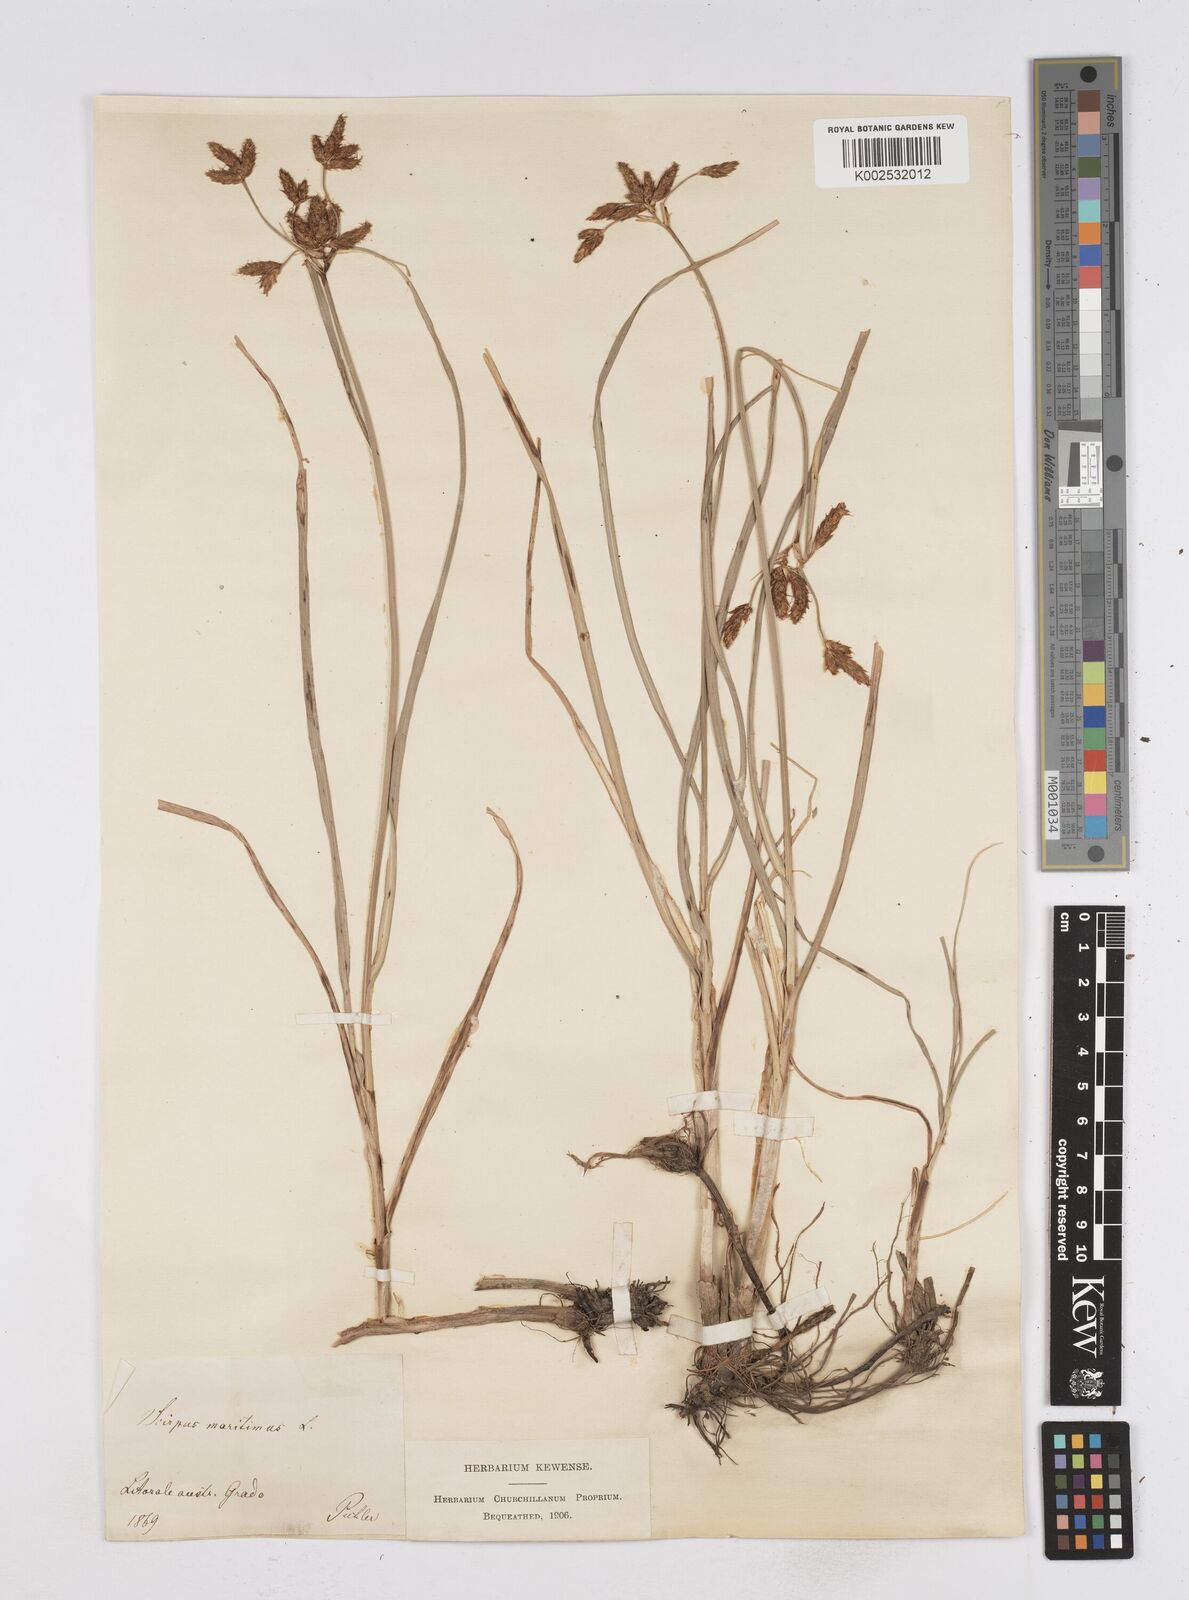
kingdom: Plantae
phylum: Tracheophyta
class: Liliopsida
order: Poales
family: Cyperaceae
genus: Bolboschoenus
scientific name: Bolboschoenus maritimus
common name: Sea club-rush
